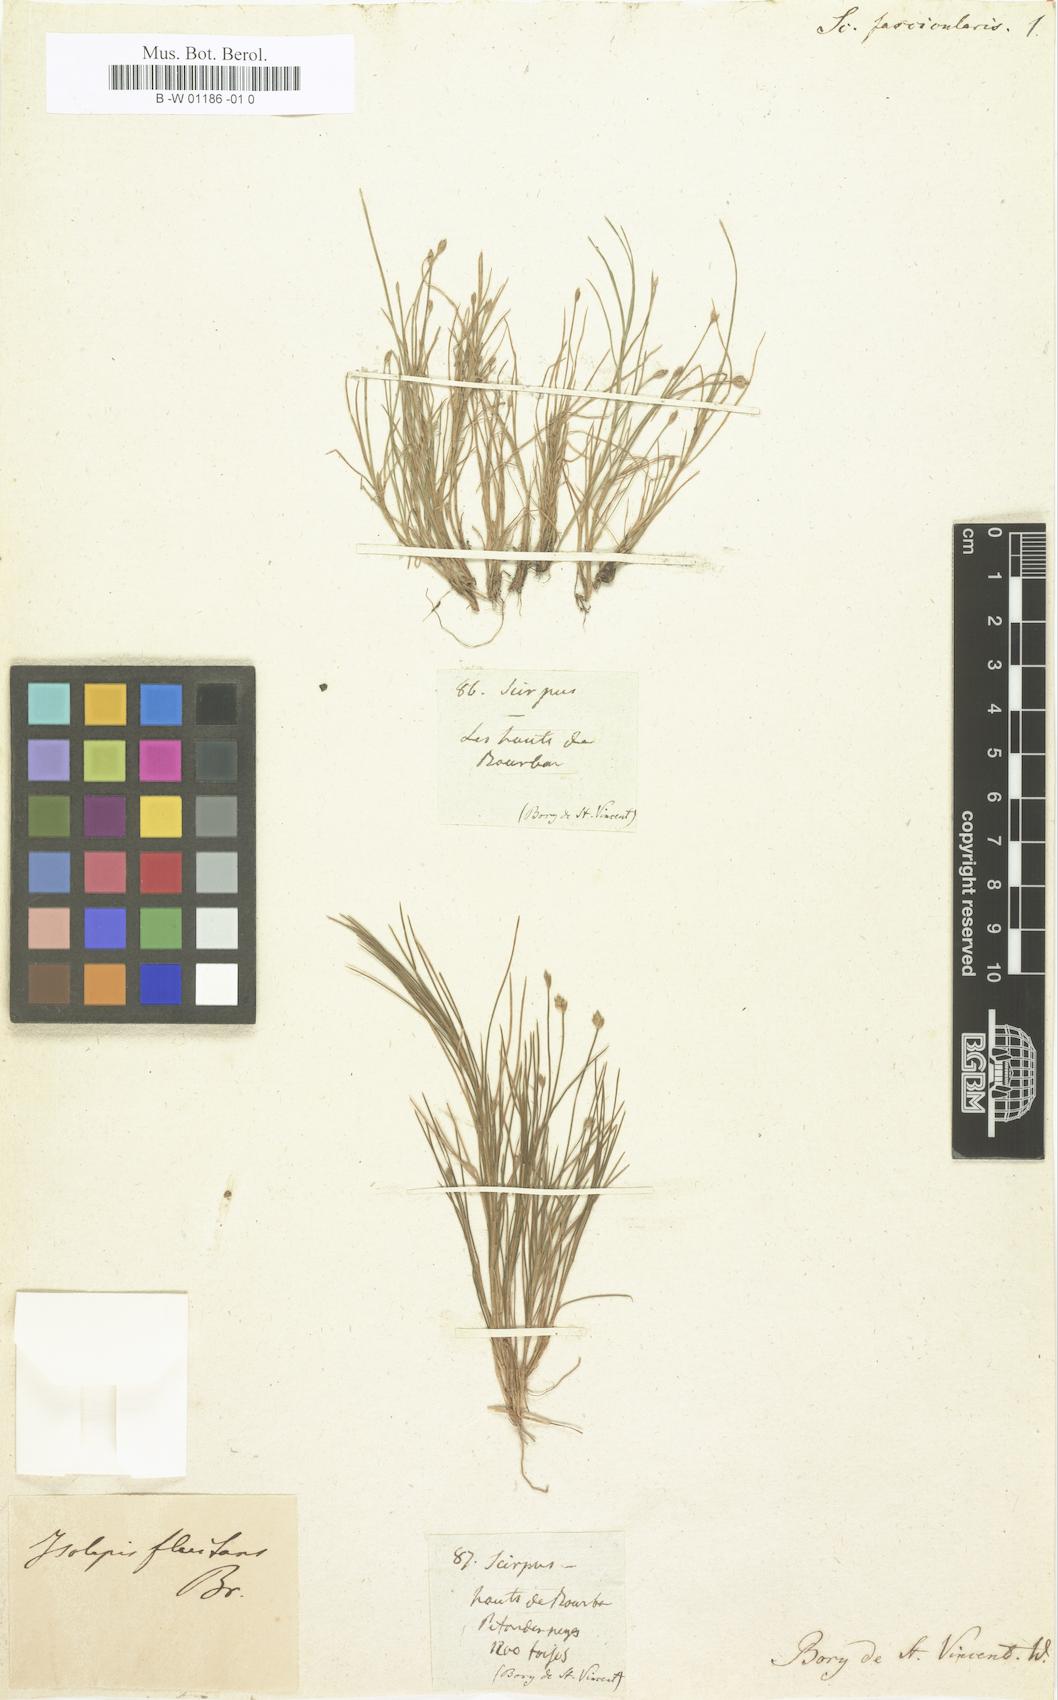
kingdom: Plantae
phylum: Tracheophyta
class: Liliopsida
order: Poales
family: Cyperaceae
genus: Isolepis
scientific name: Isolepis ludwigii
